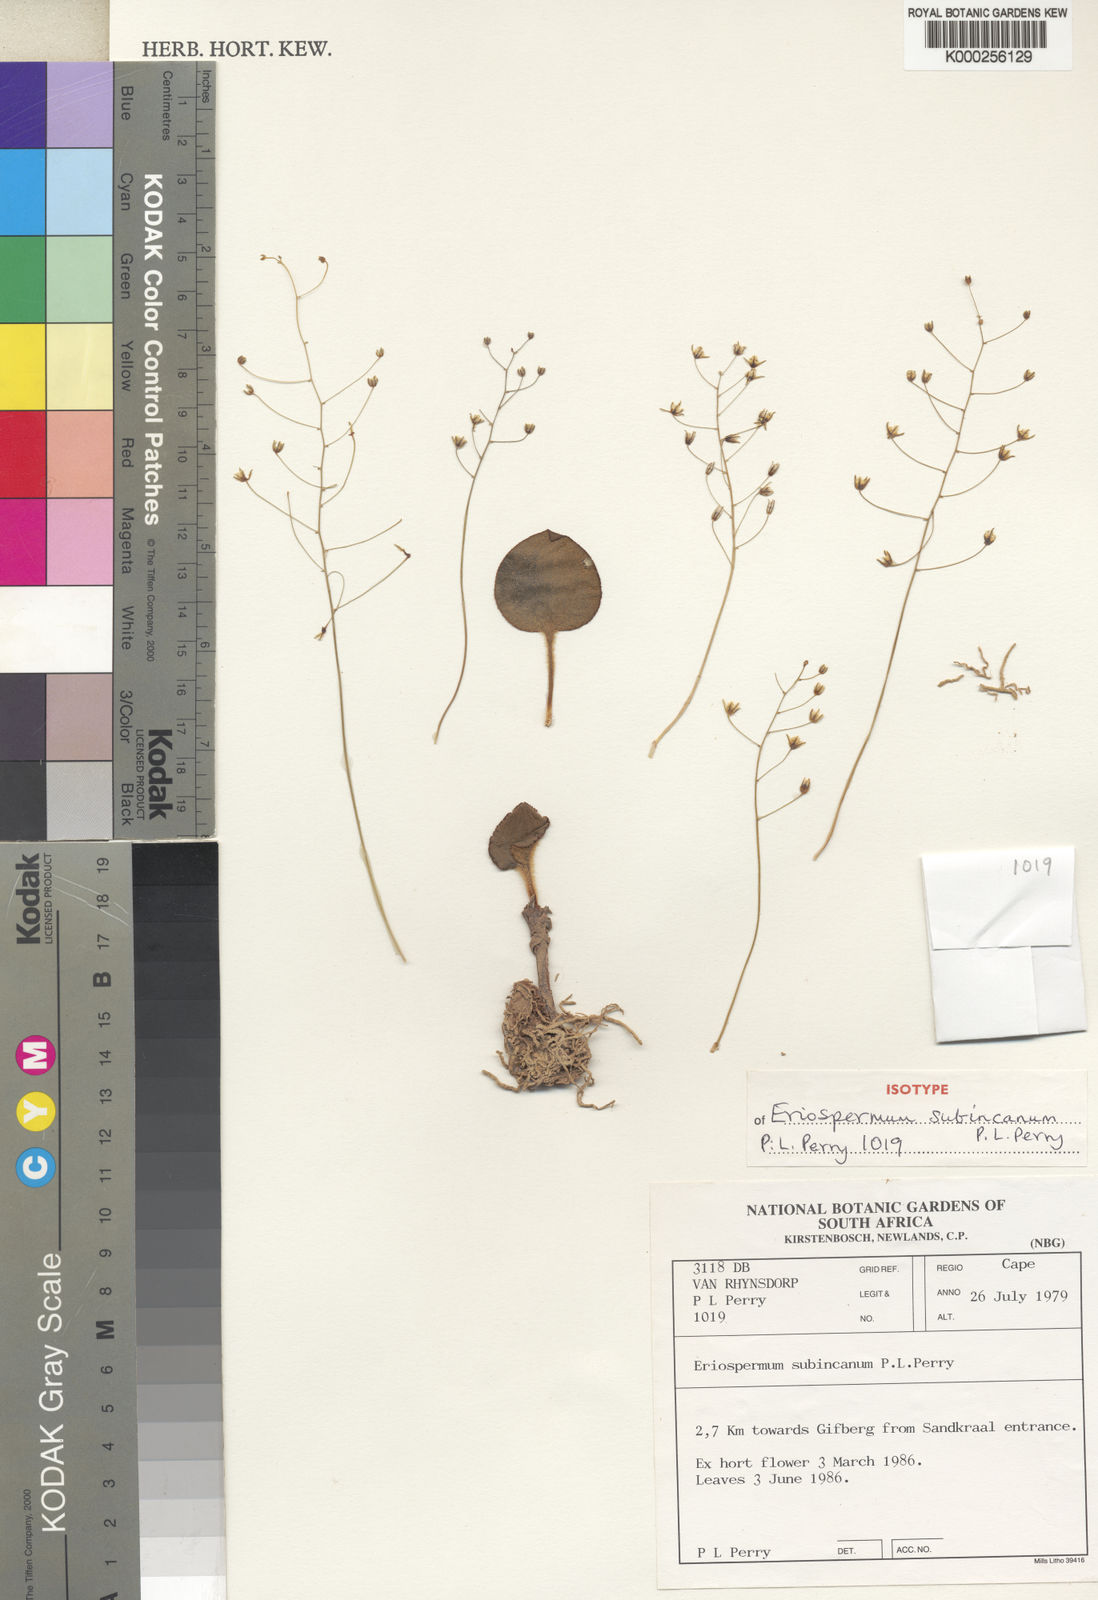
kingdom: Plantae
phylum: Tracheophyta
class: Liliopsida
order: Asparagales
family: Asparagaceae
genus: Eriospermum
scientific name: Eriospermum subincanum
